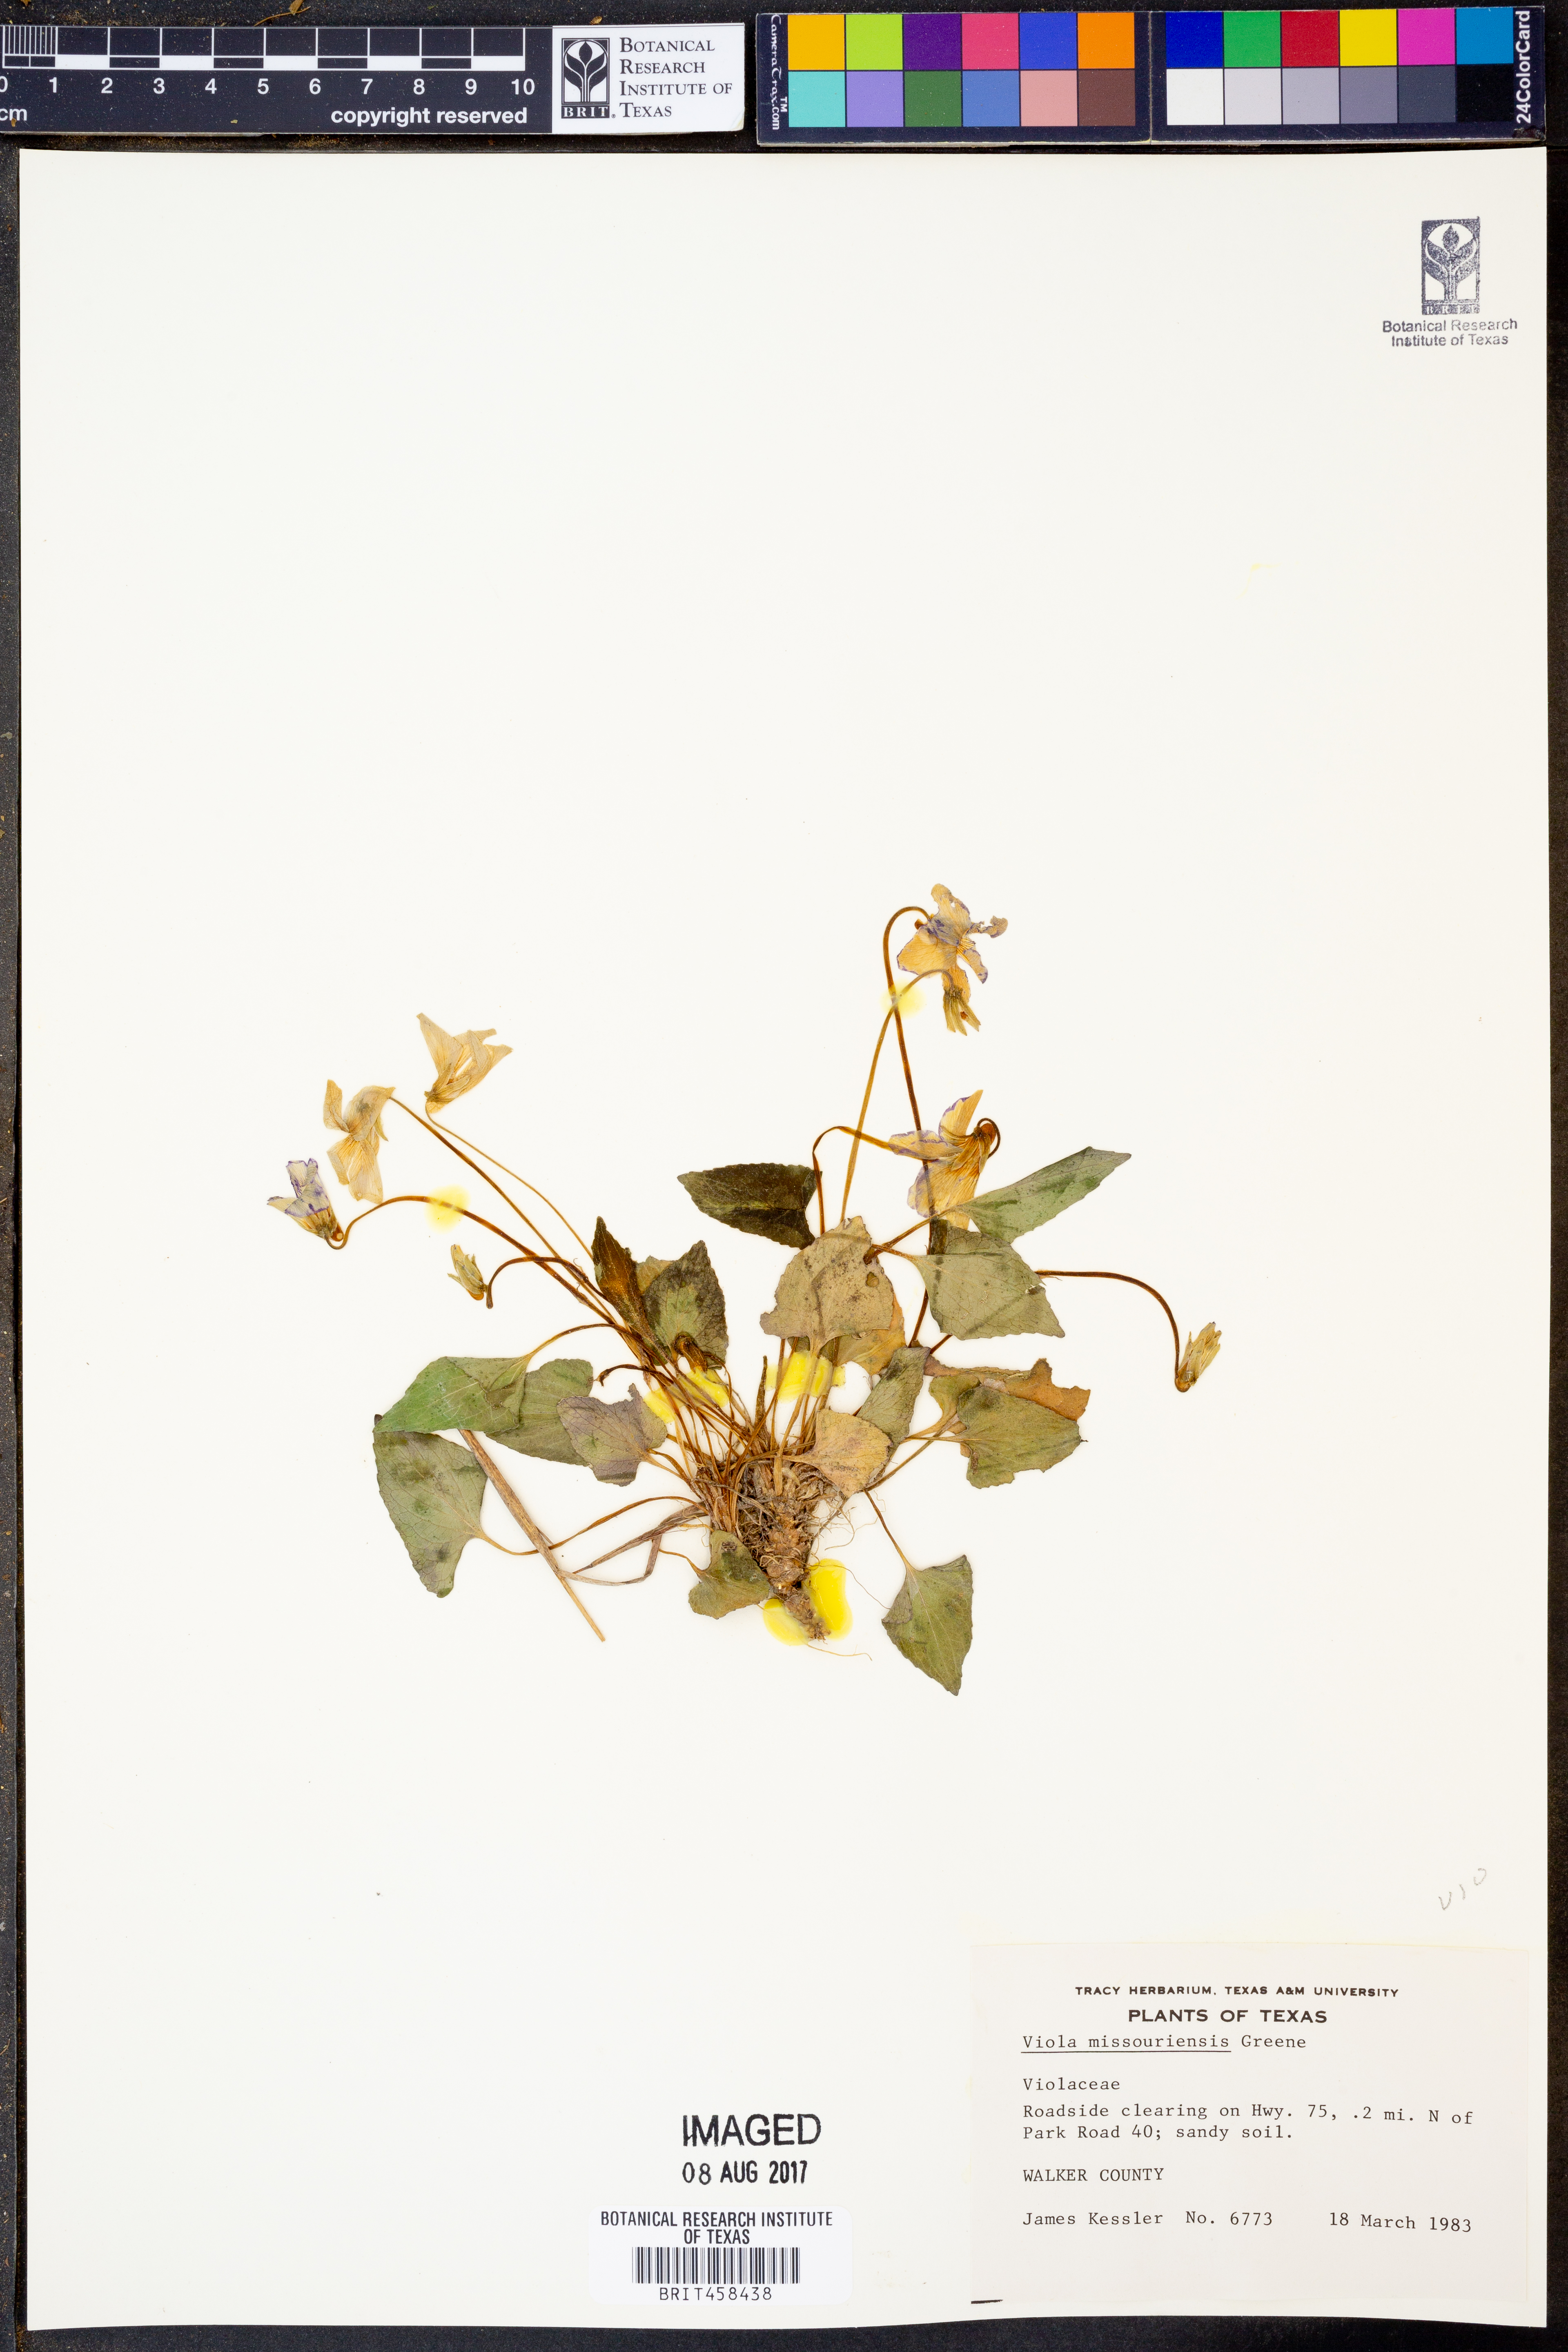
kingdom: Plantae
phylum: Tracheophyta
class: Magnoliopsida
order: Malpighiales
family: Violaceae
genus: Viola
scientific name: Viola missouriensis
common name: Missouri violet
